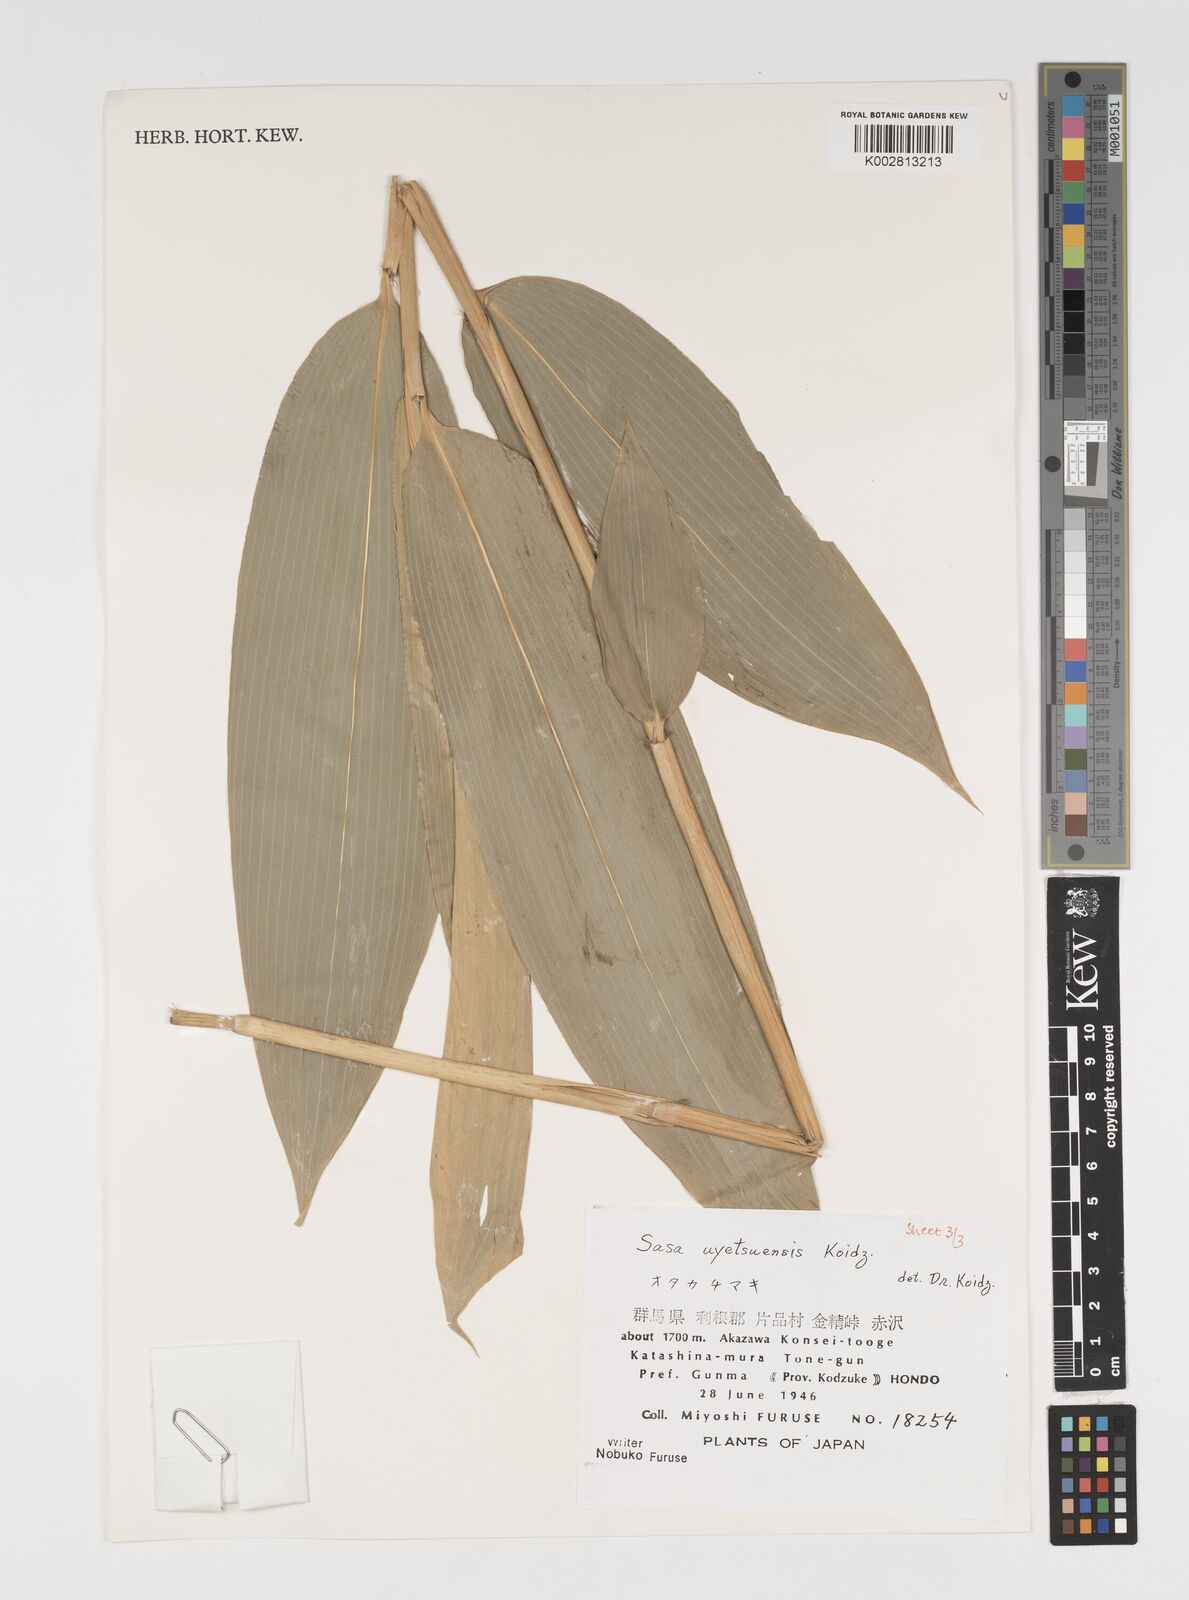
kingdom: Plantae
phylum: Tracheophyta
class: Liliopsida
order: Poales
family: Poaceae
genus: Sasa
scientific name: Sasa senanensis
